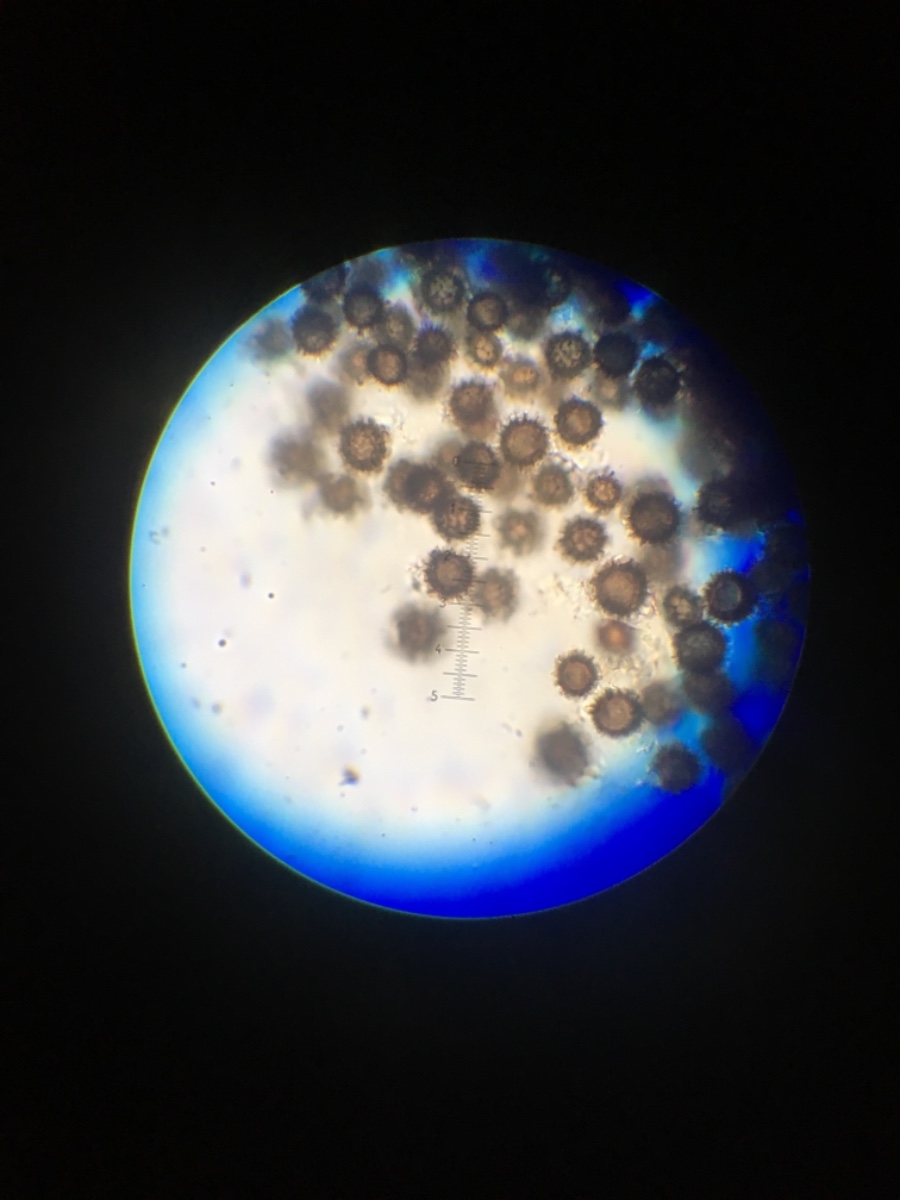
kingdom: Fungi
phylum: Basidiomycota
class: Agaricomycetes
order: Boletales
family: Sclerodermataceae
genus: Scleroderma
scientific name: Scleroderma citrinum
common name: almindelig bruskbold
